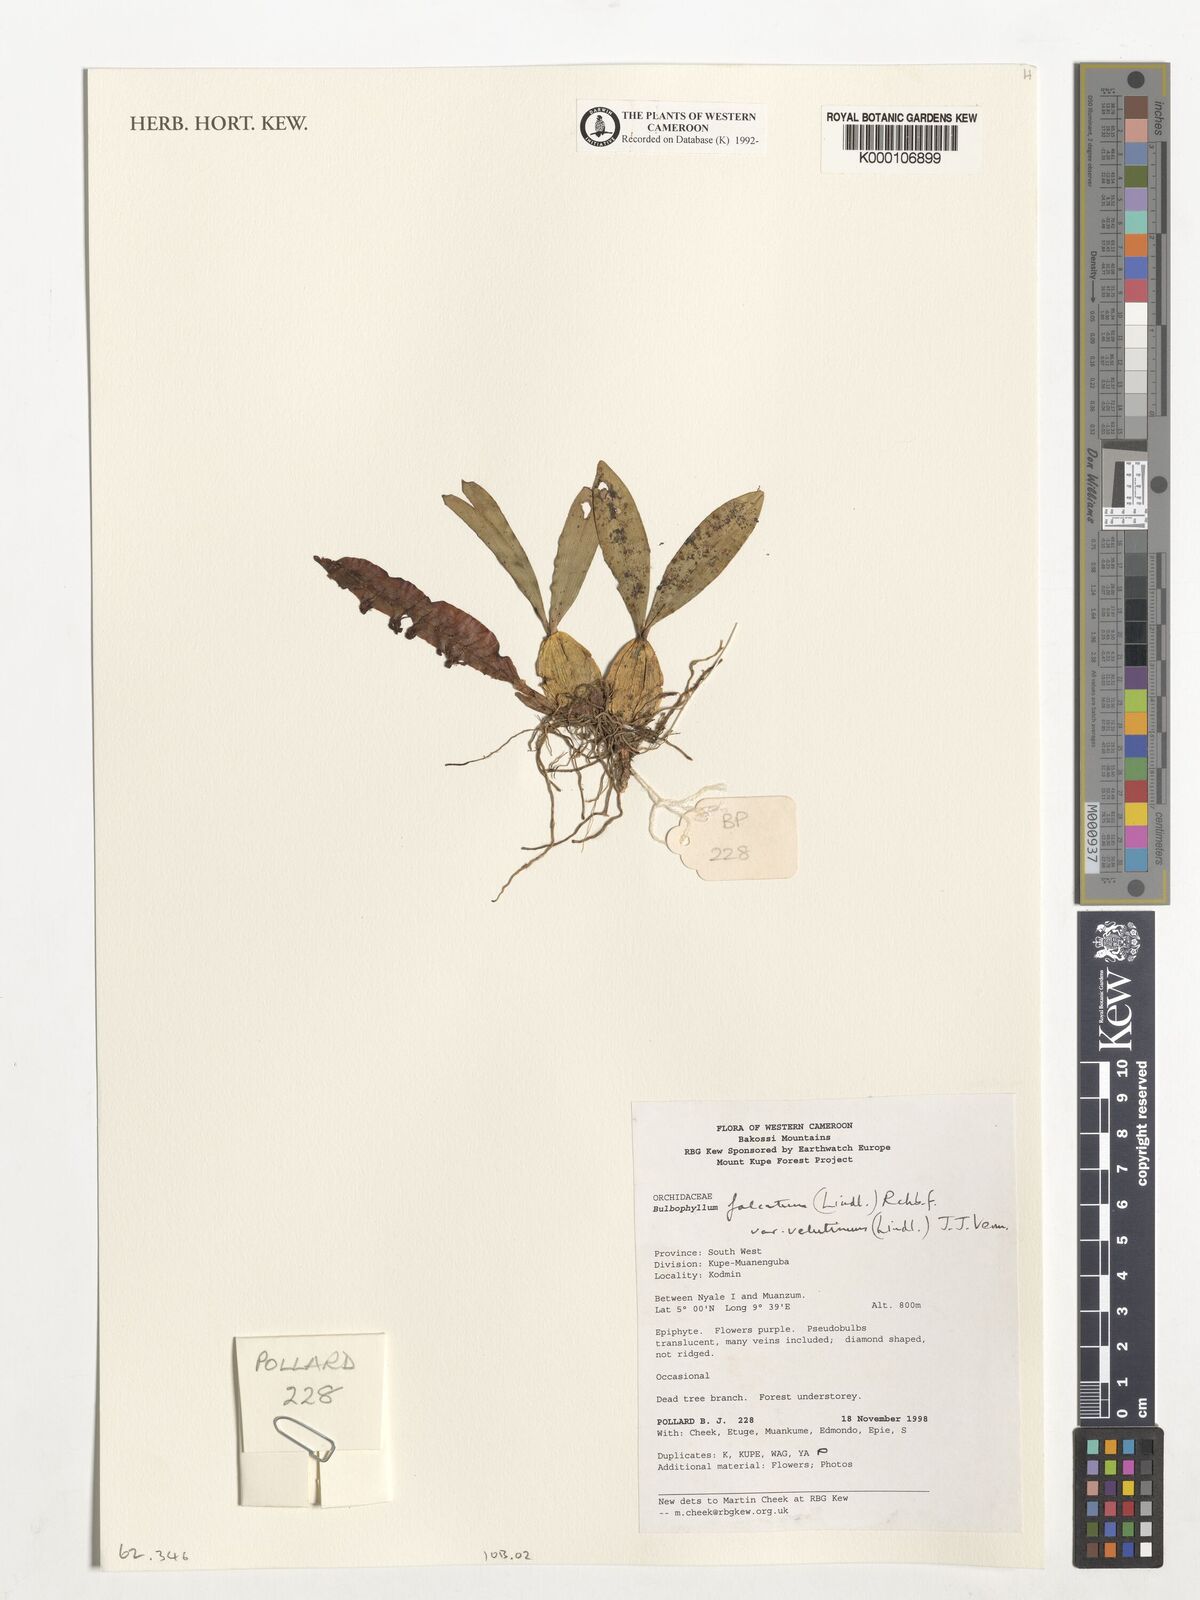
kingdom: Plantae
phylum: Tracheophyta
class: Liliopsida
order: Asparagales
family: Orchidaceae
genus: Bulbophyllum
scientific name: Bulbophyllum falcatum
